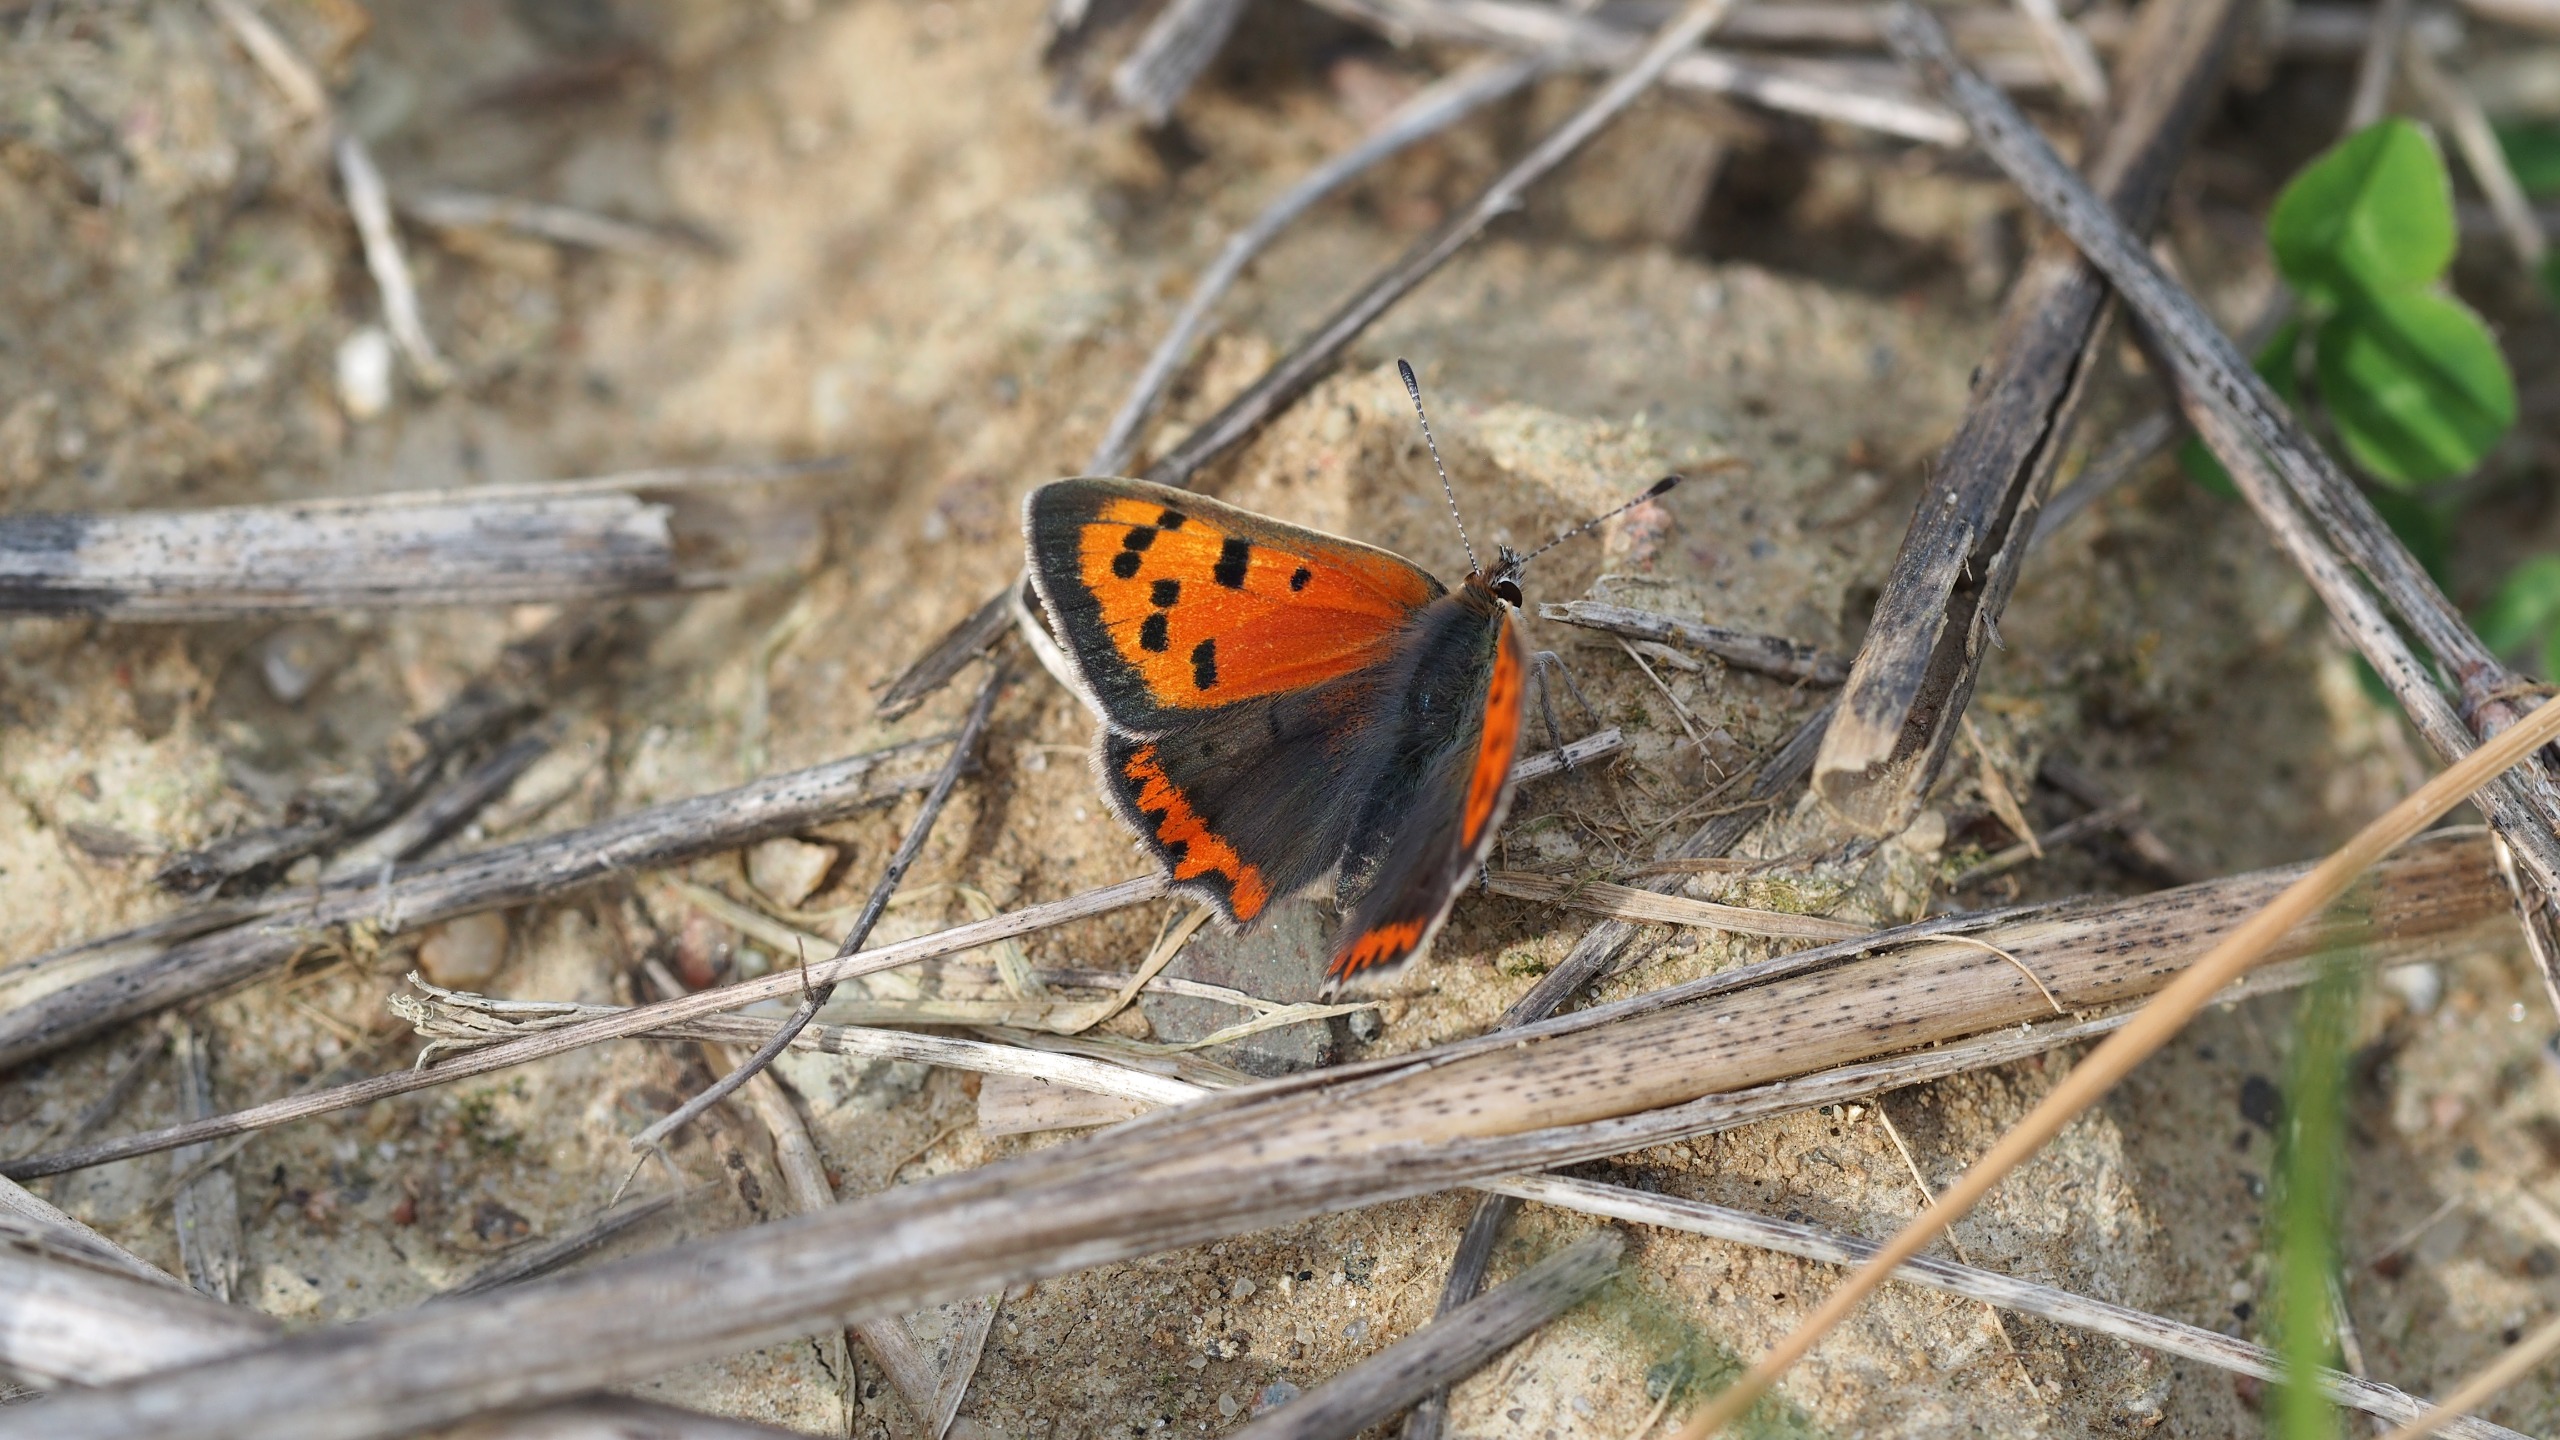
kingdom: Animalia
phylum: Arthropoda
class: Insecta
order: Lepidoptera
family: Lycaenidae
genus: Lycaena
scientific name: Lycaena phlaeas
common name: Lille ildfugl
